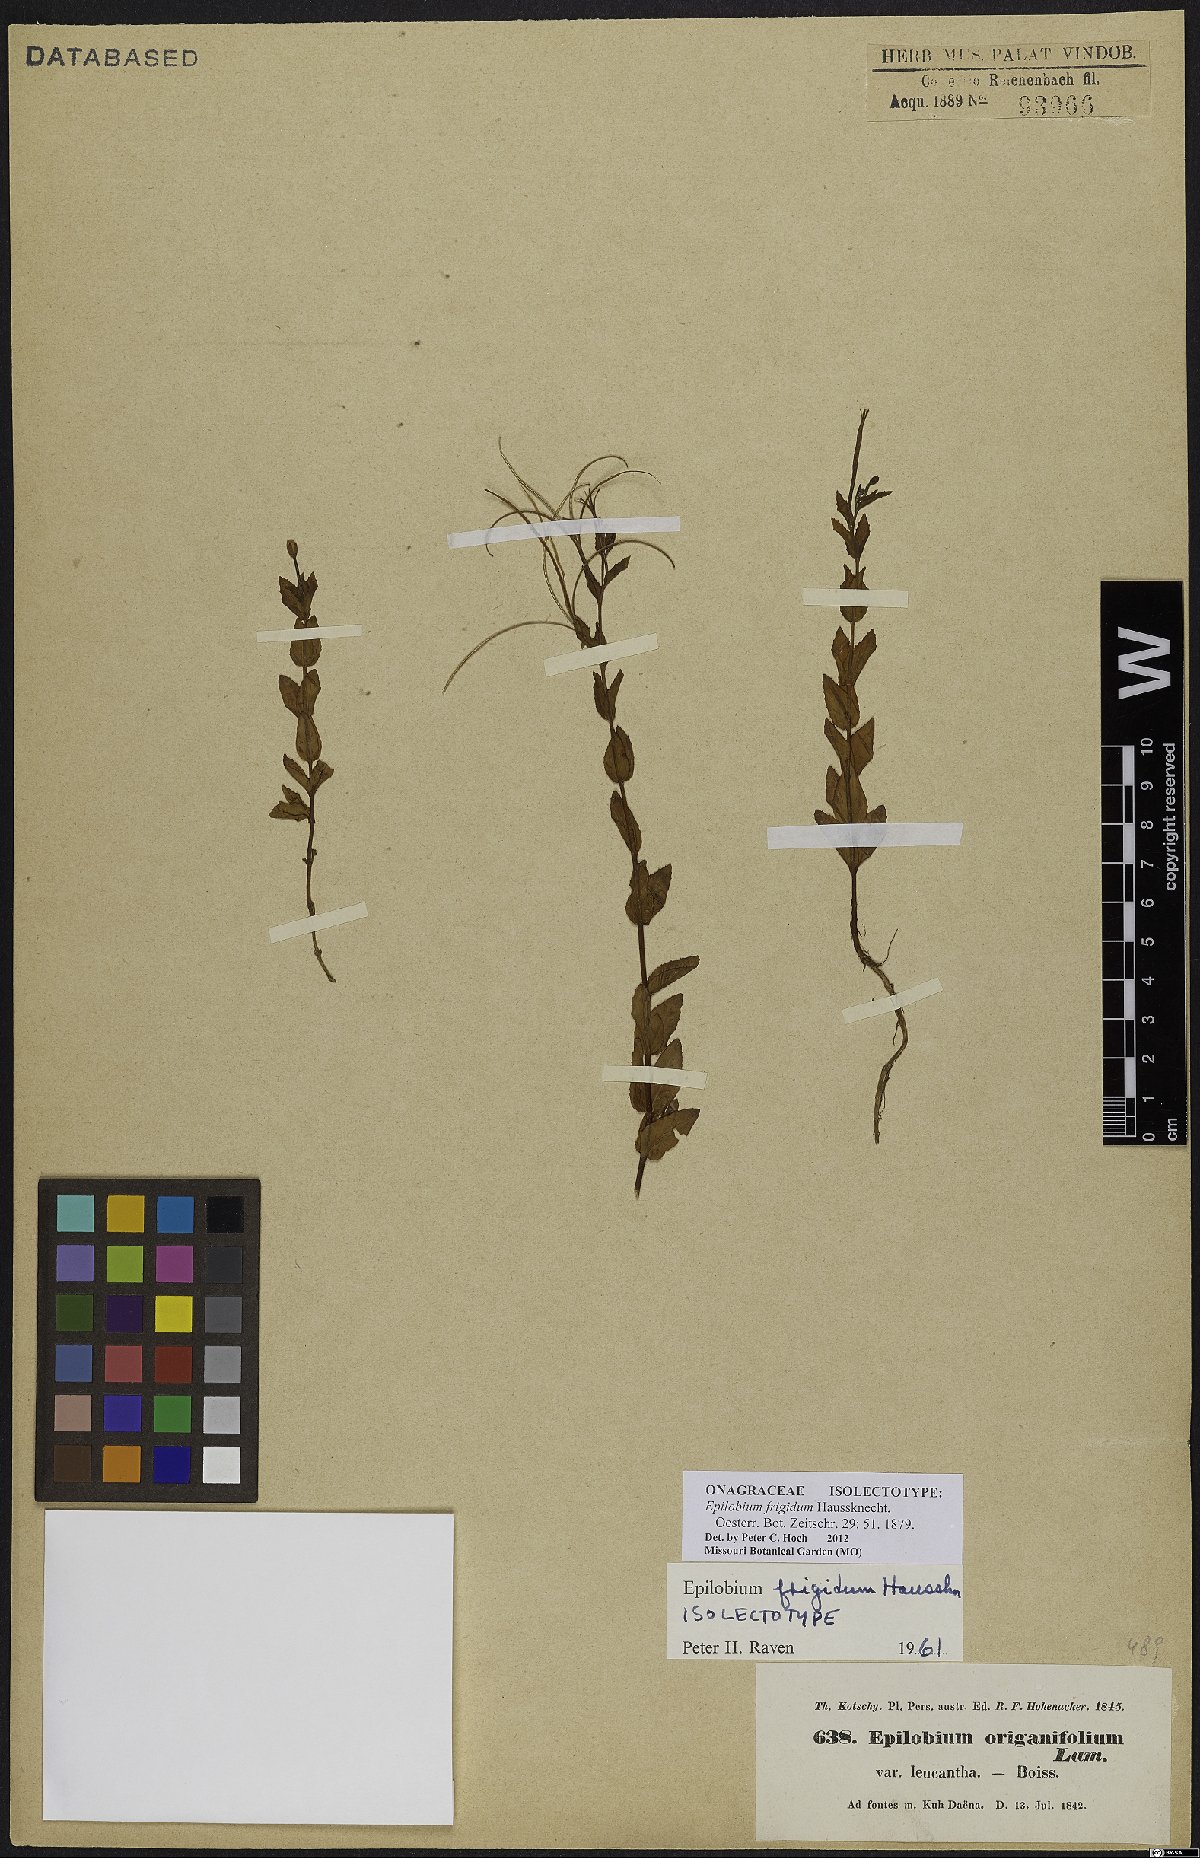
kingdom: Plantae
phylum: Tracheophyta
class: Magnoliopsida
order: Myrtales
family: Onagraceae
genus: Epilobium
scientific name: Epilobium ponticum
